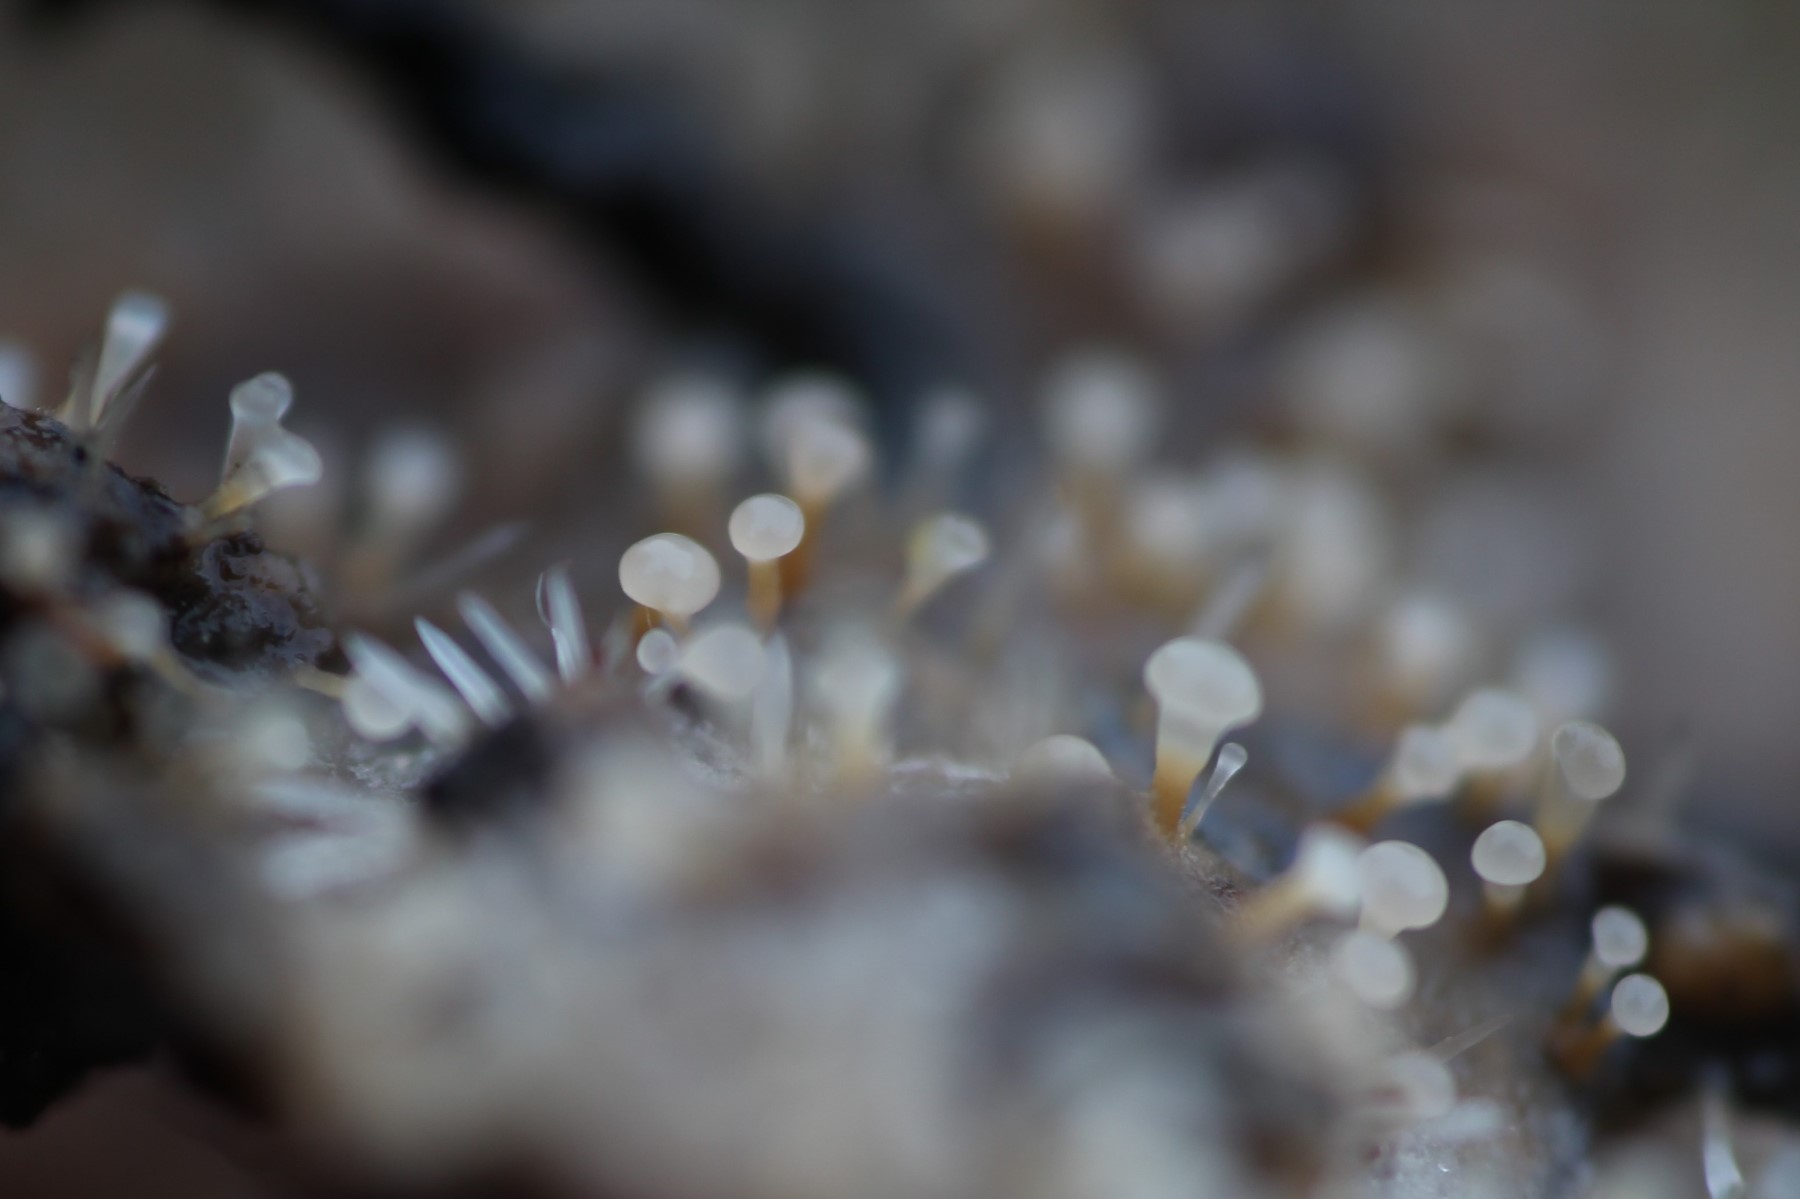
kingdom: Fungi
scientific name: Fungi
